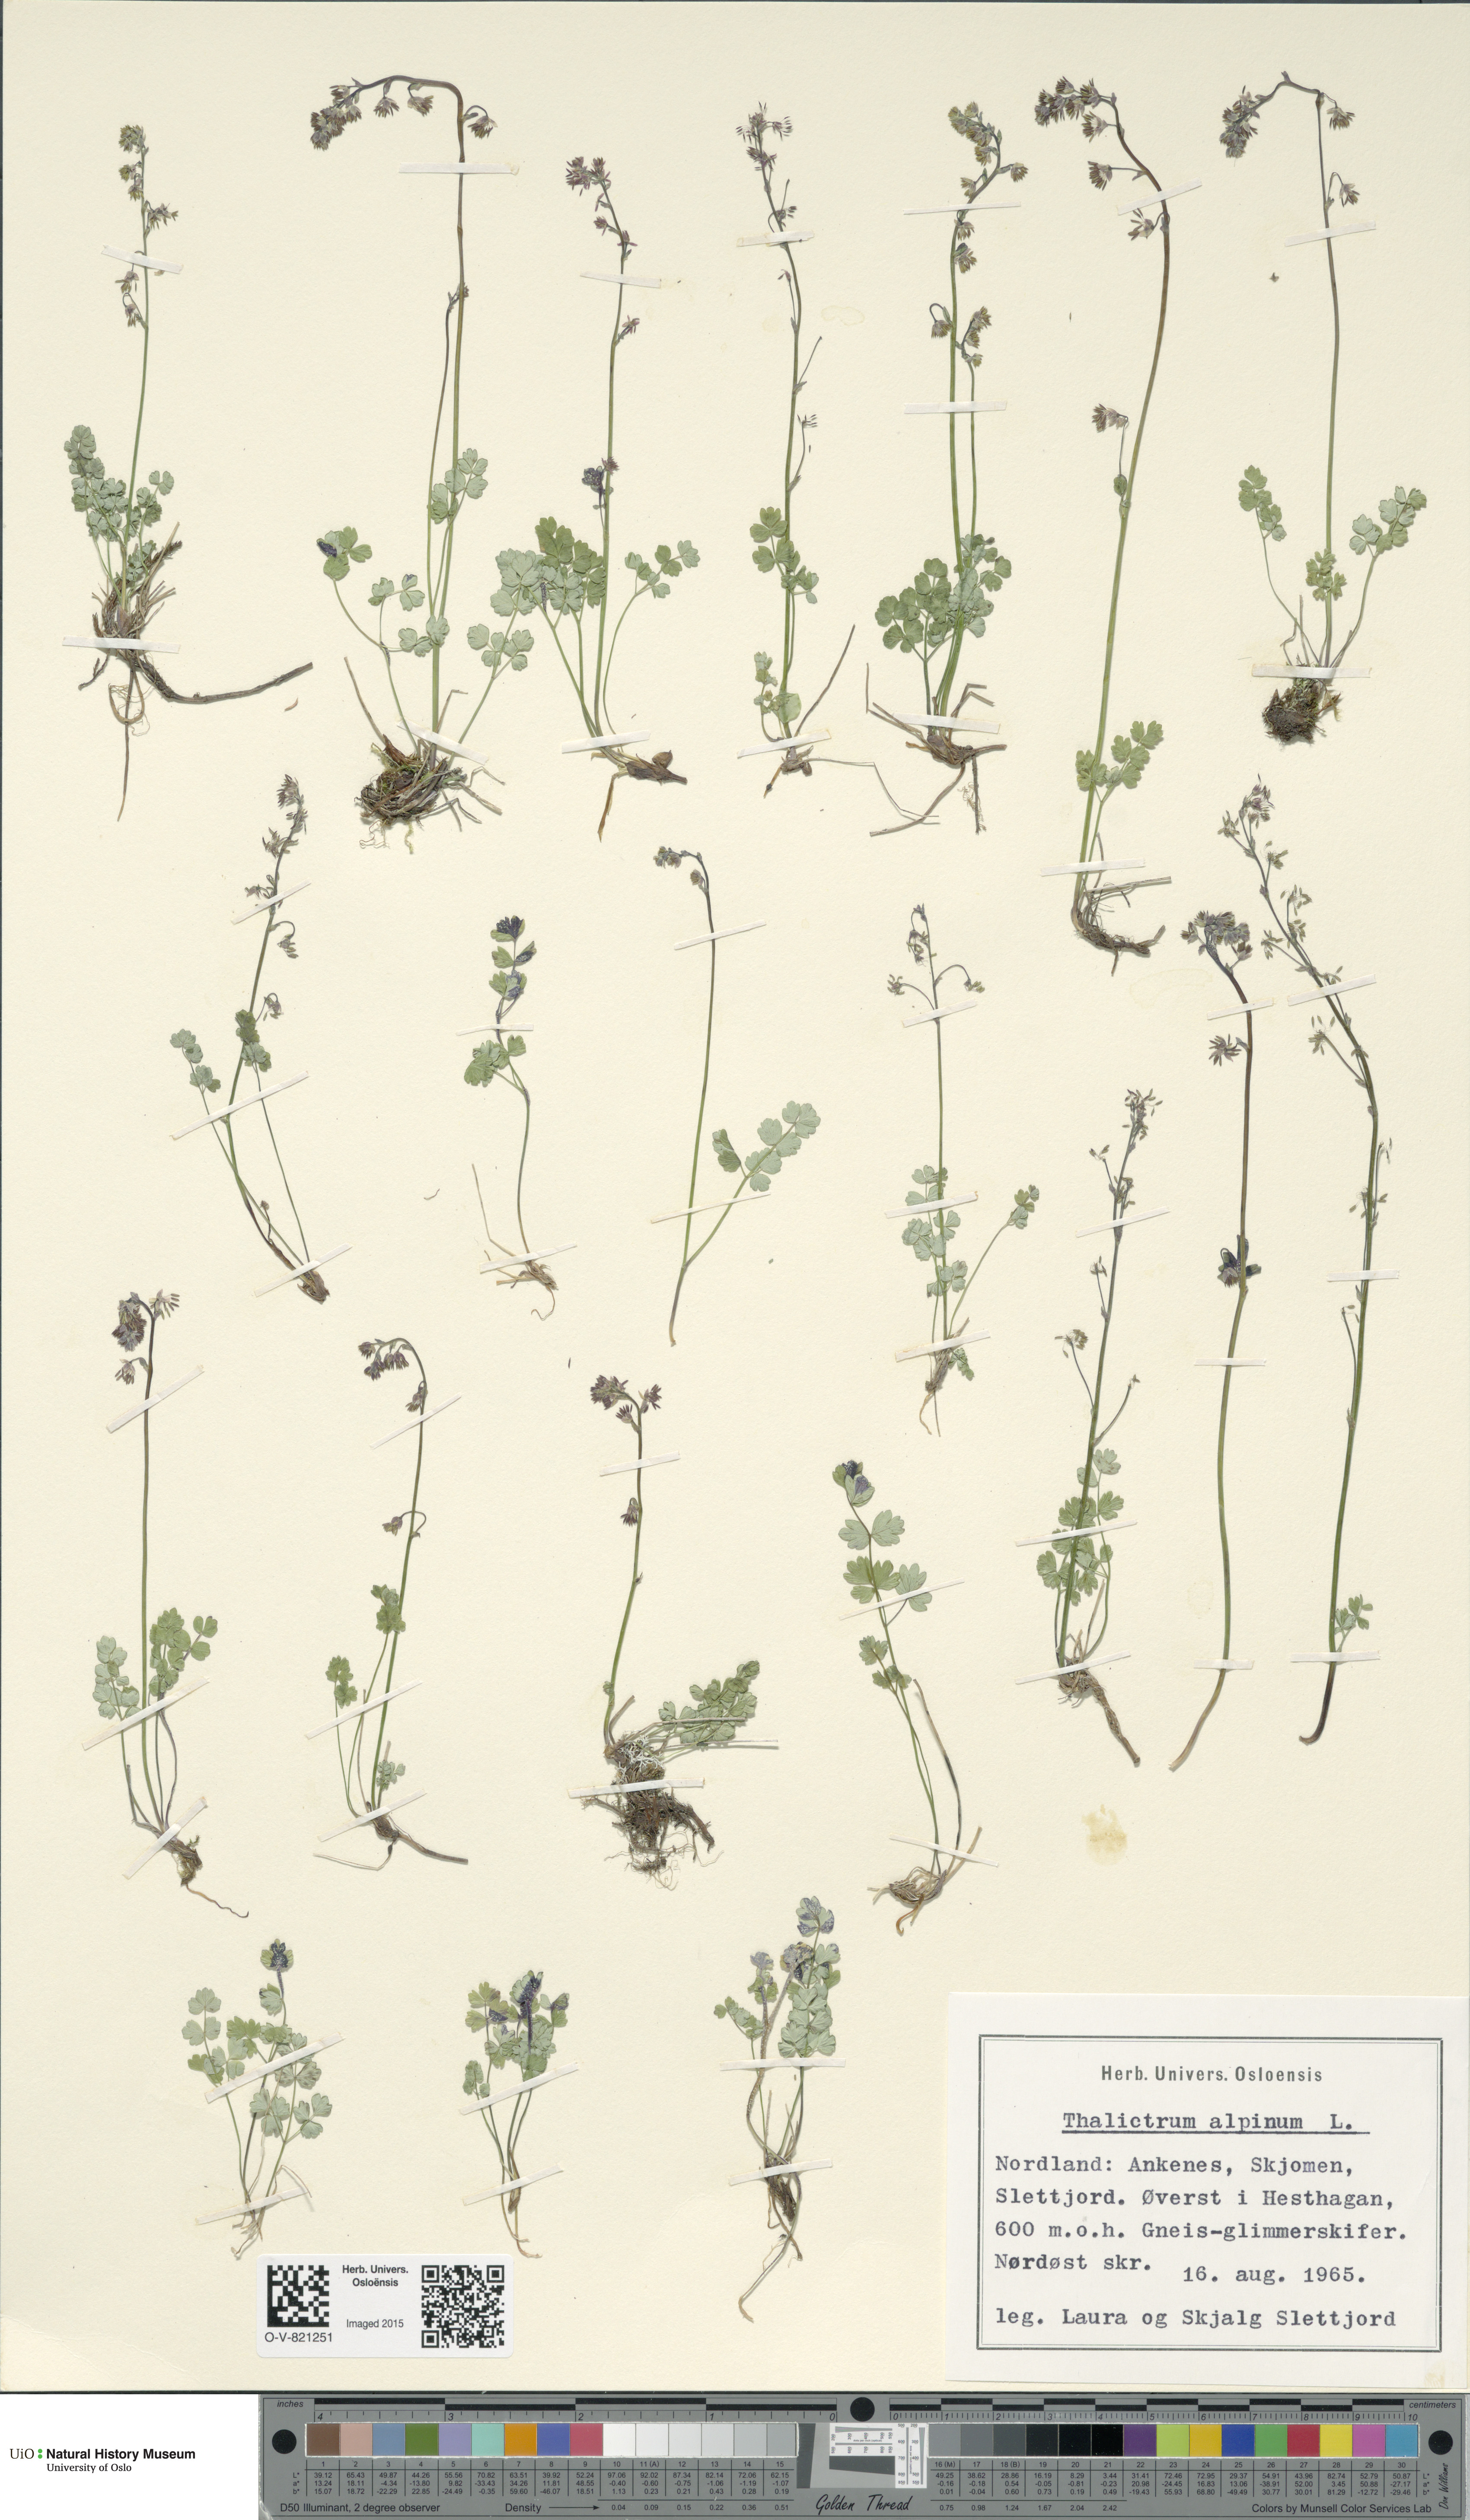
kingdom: Plantae
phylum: Tracheophyta
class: Magnoliopsida
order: Ranunculales
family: Ranunculaceae
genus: Thalictrum
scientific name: Thalictrum alpinum
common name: Alpine meadow-rue
